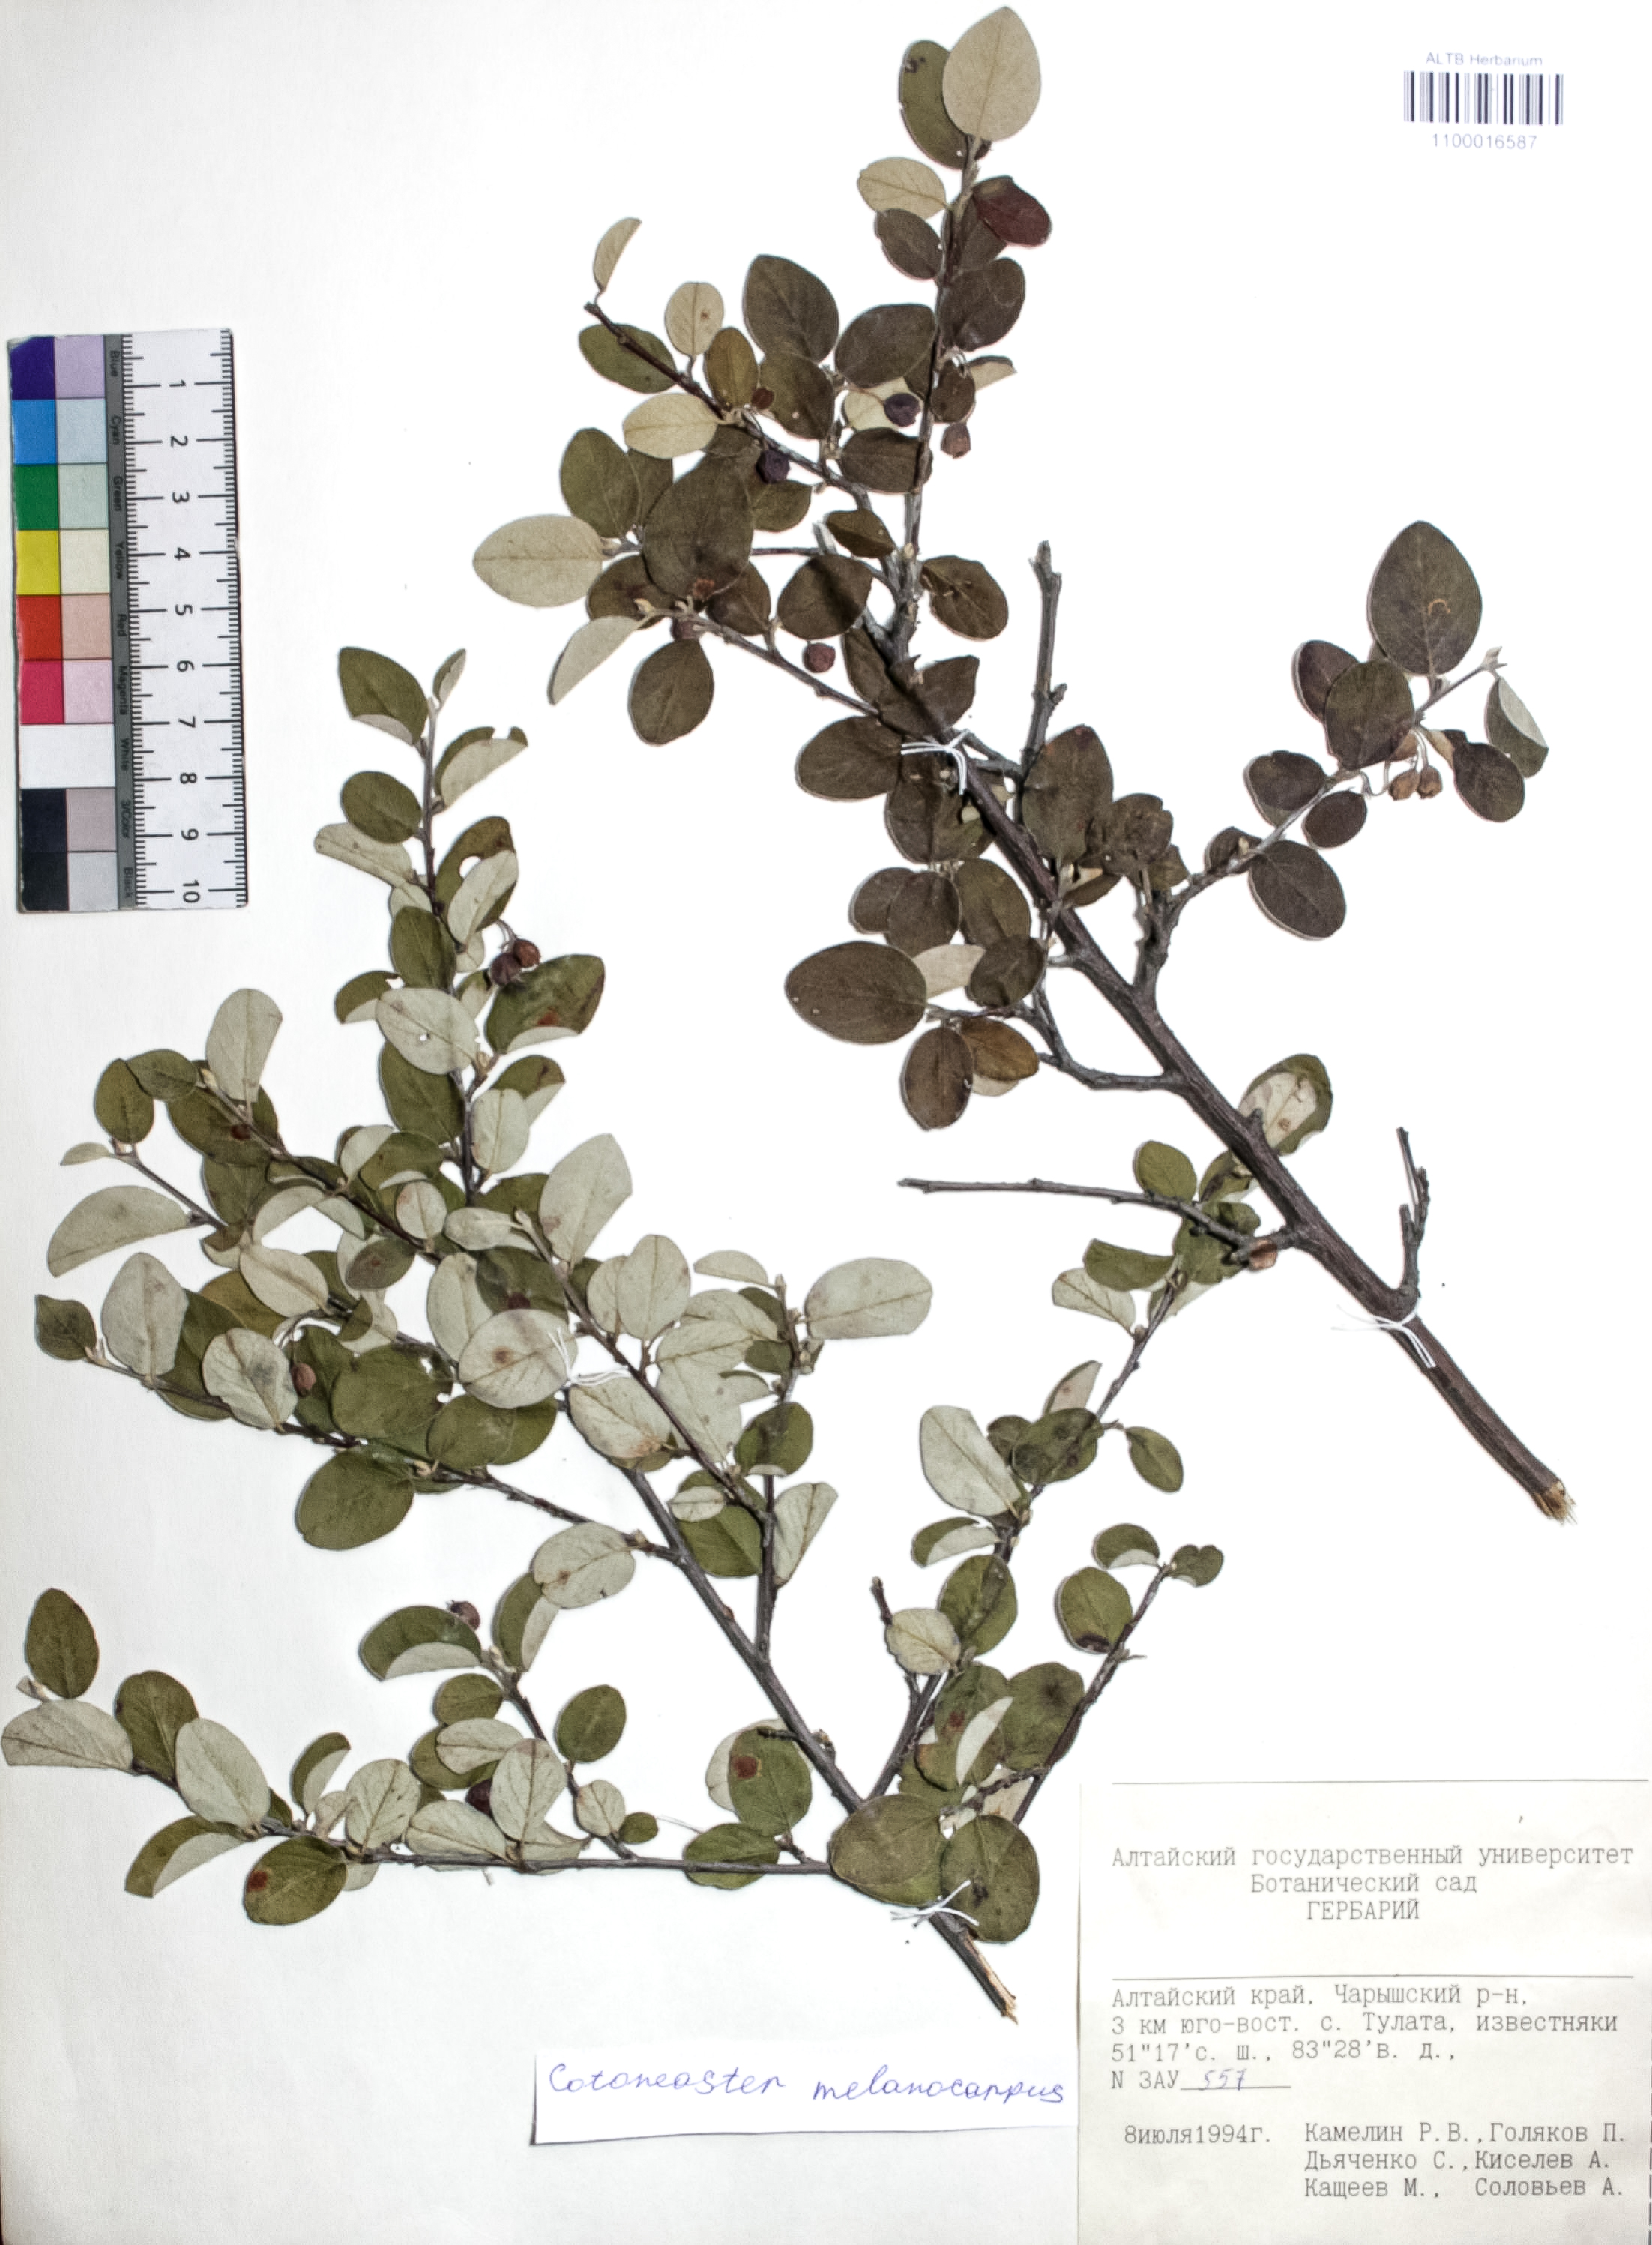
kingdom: Plantae
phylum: Tracheophyta
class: Magnoliopsida
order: Rosales
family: Rosaceae
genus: Cotoneaster
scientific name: Cotoneaster niger
